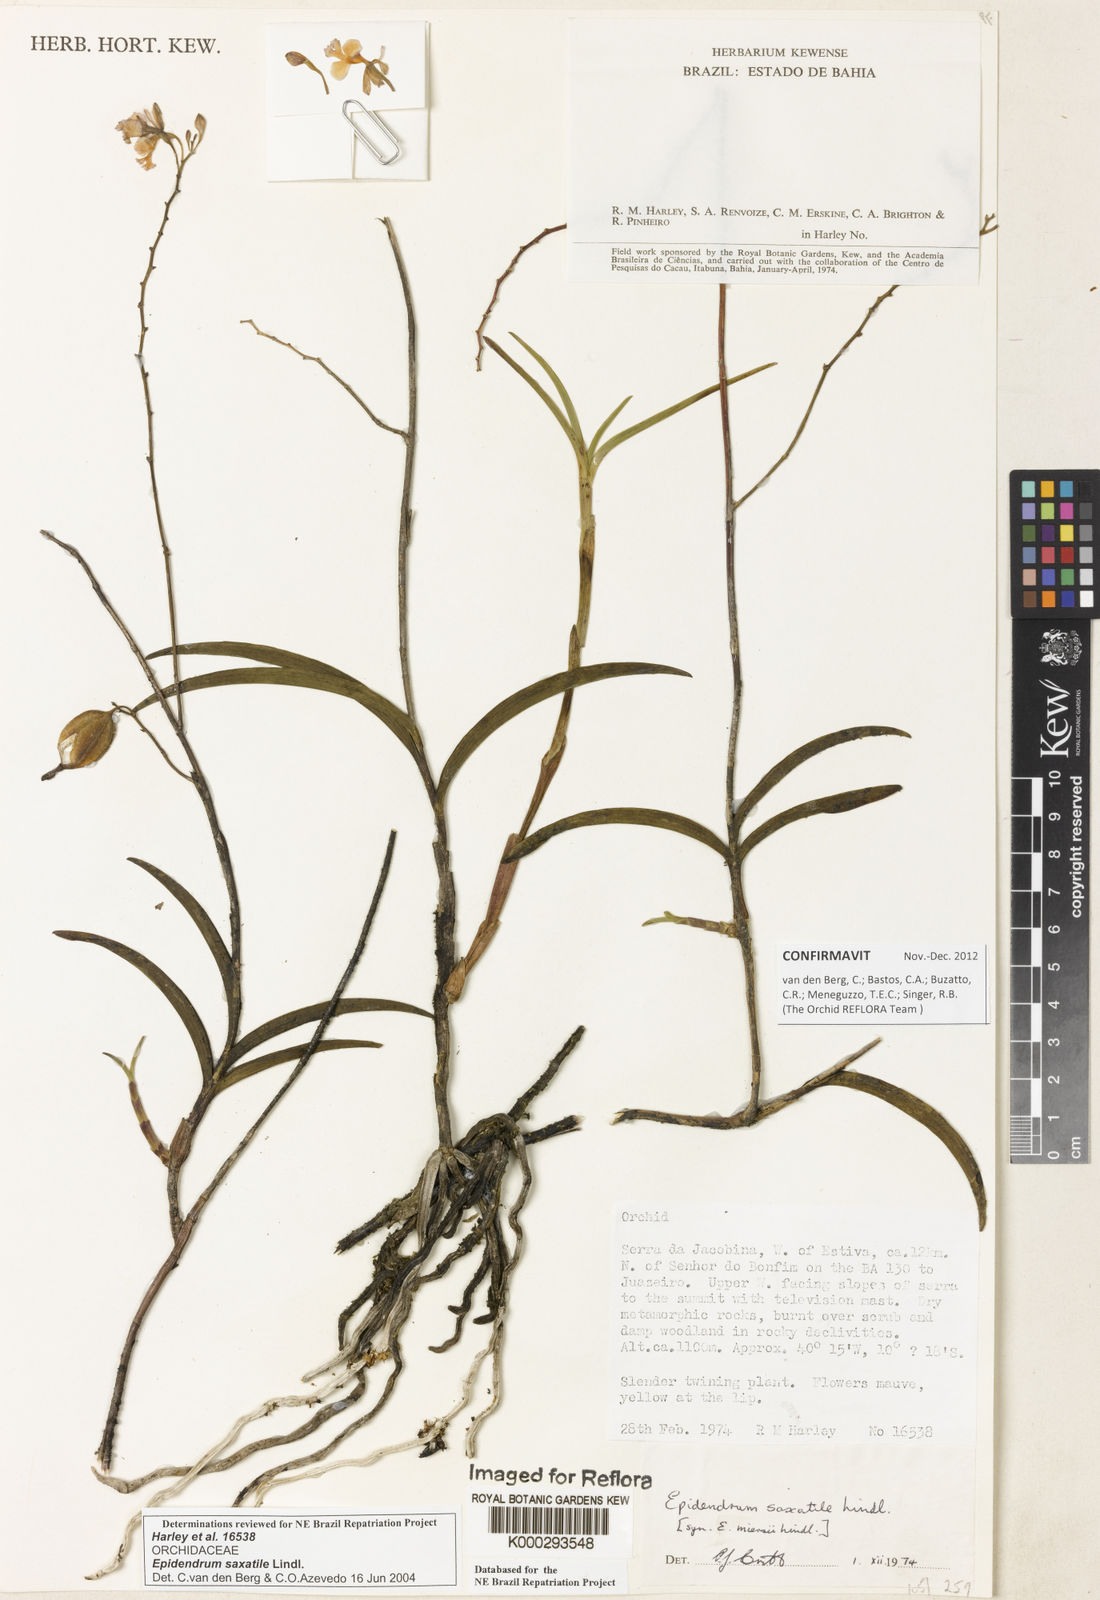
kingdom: Plantae
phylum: Tracheophyta
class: Liliopsida
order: Asparagales
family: Orchidaceae
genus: Epidendrum
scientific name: Epidendrum saxatile
